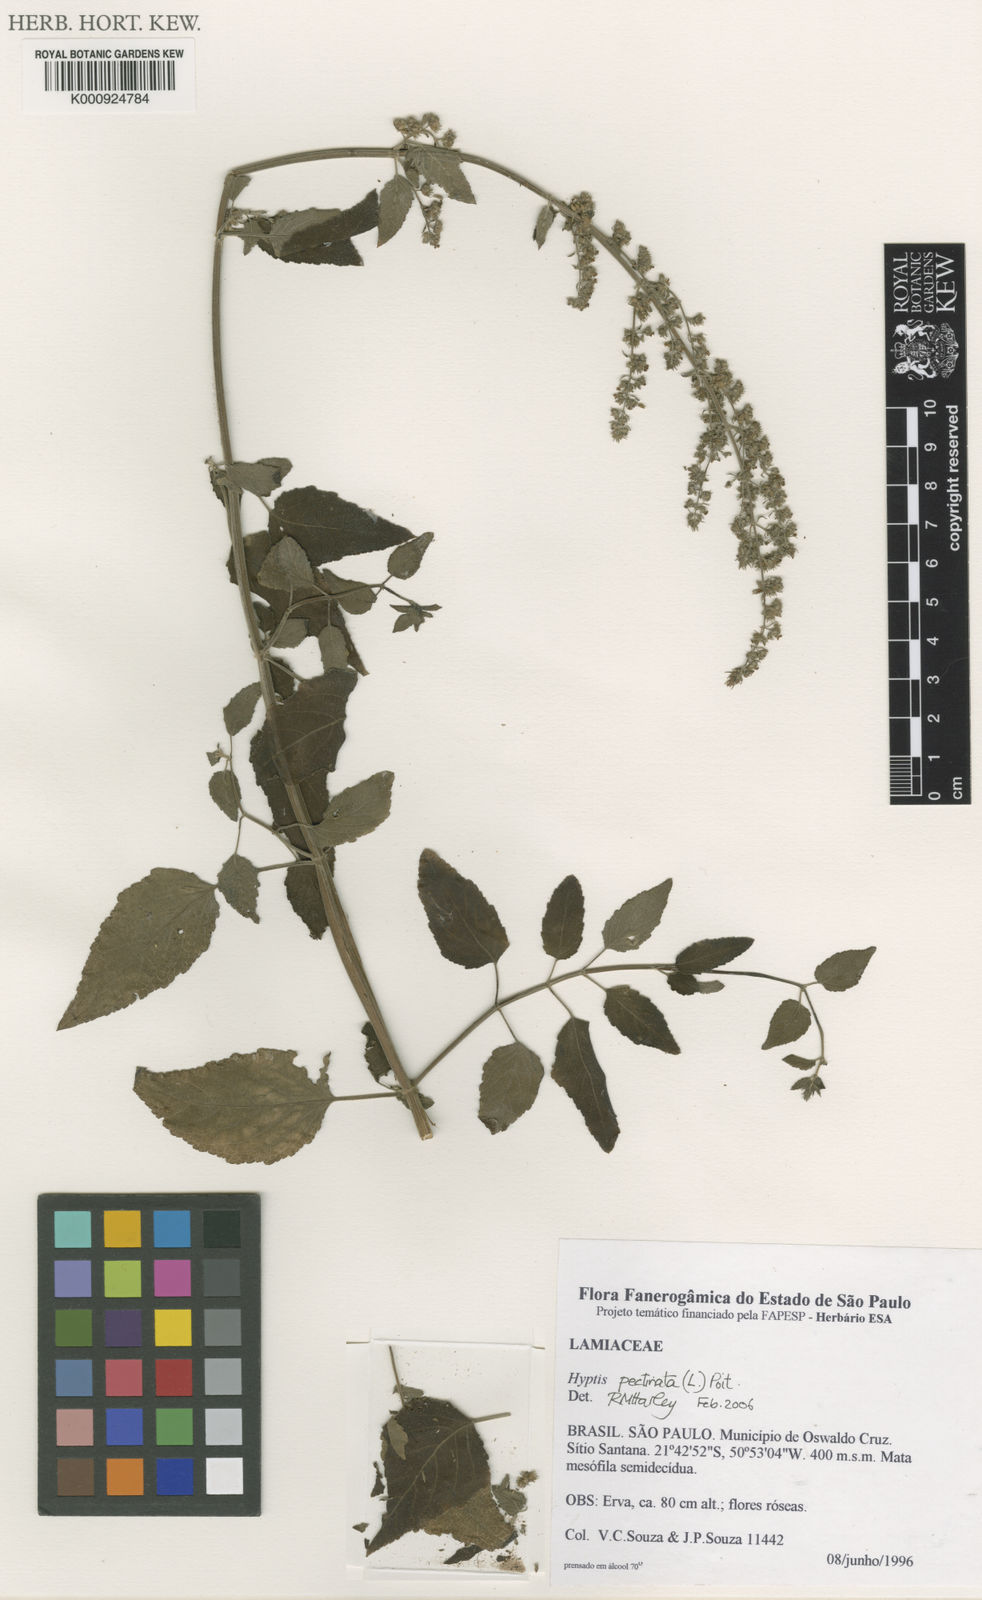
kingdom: Plantae
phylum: Tracheophyta
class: Magnoliopsida
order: Lamiales
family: Lamiaceae
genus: Mesosphaerum
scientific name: Mesosphaerum pectinatum
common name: Comb hyptis
